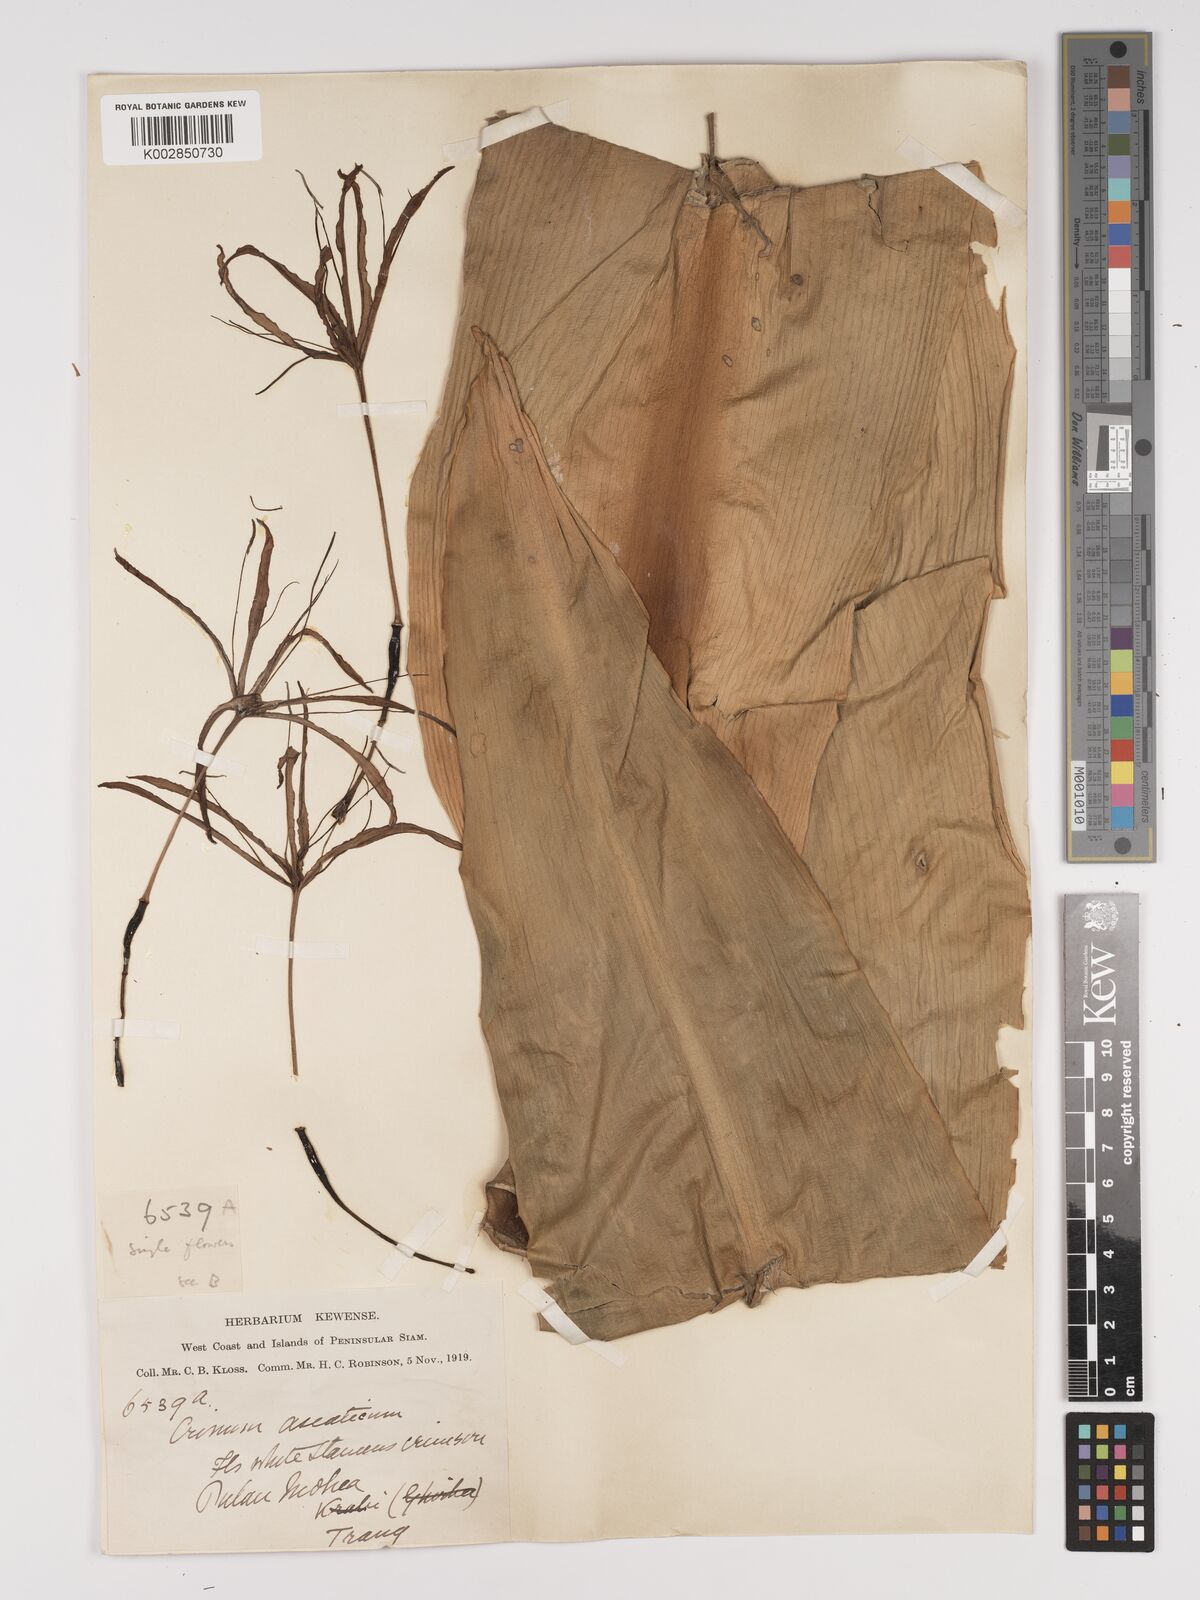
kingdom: Plantae
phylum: Tracheophyta
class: Liliopsida
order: Asparagales
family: Amaryllidaceae
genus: Crinum
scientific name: Crinum asiaticum
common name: Poisonbulb
